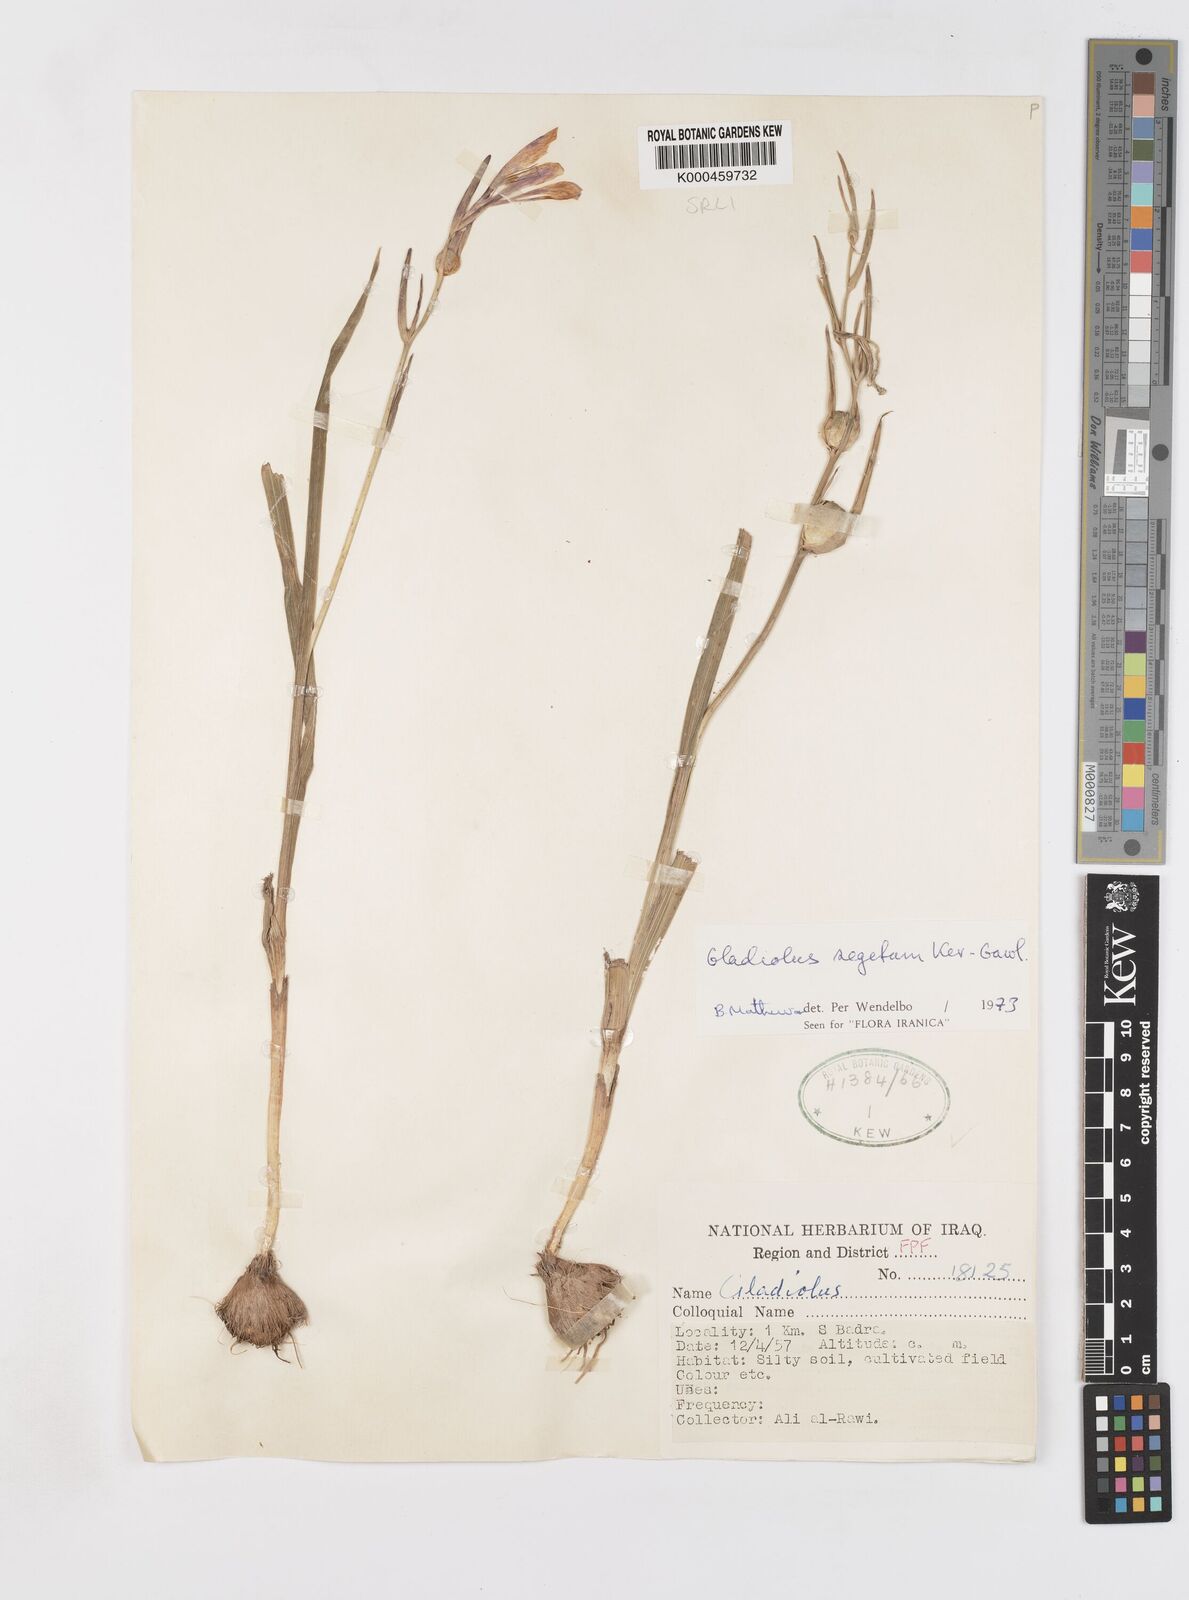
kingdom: Plantae
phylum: Tracheophyta
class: Liliopsida
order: Asparagales
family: Iridaceae
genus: Gladiolus
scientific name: Gladiolus italicus
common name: Field gladiolus
